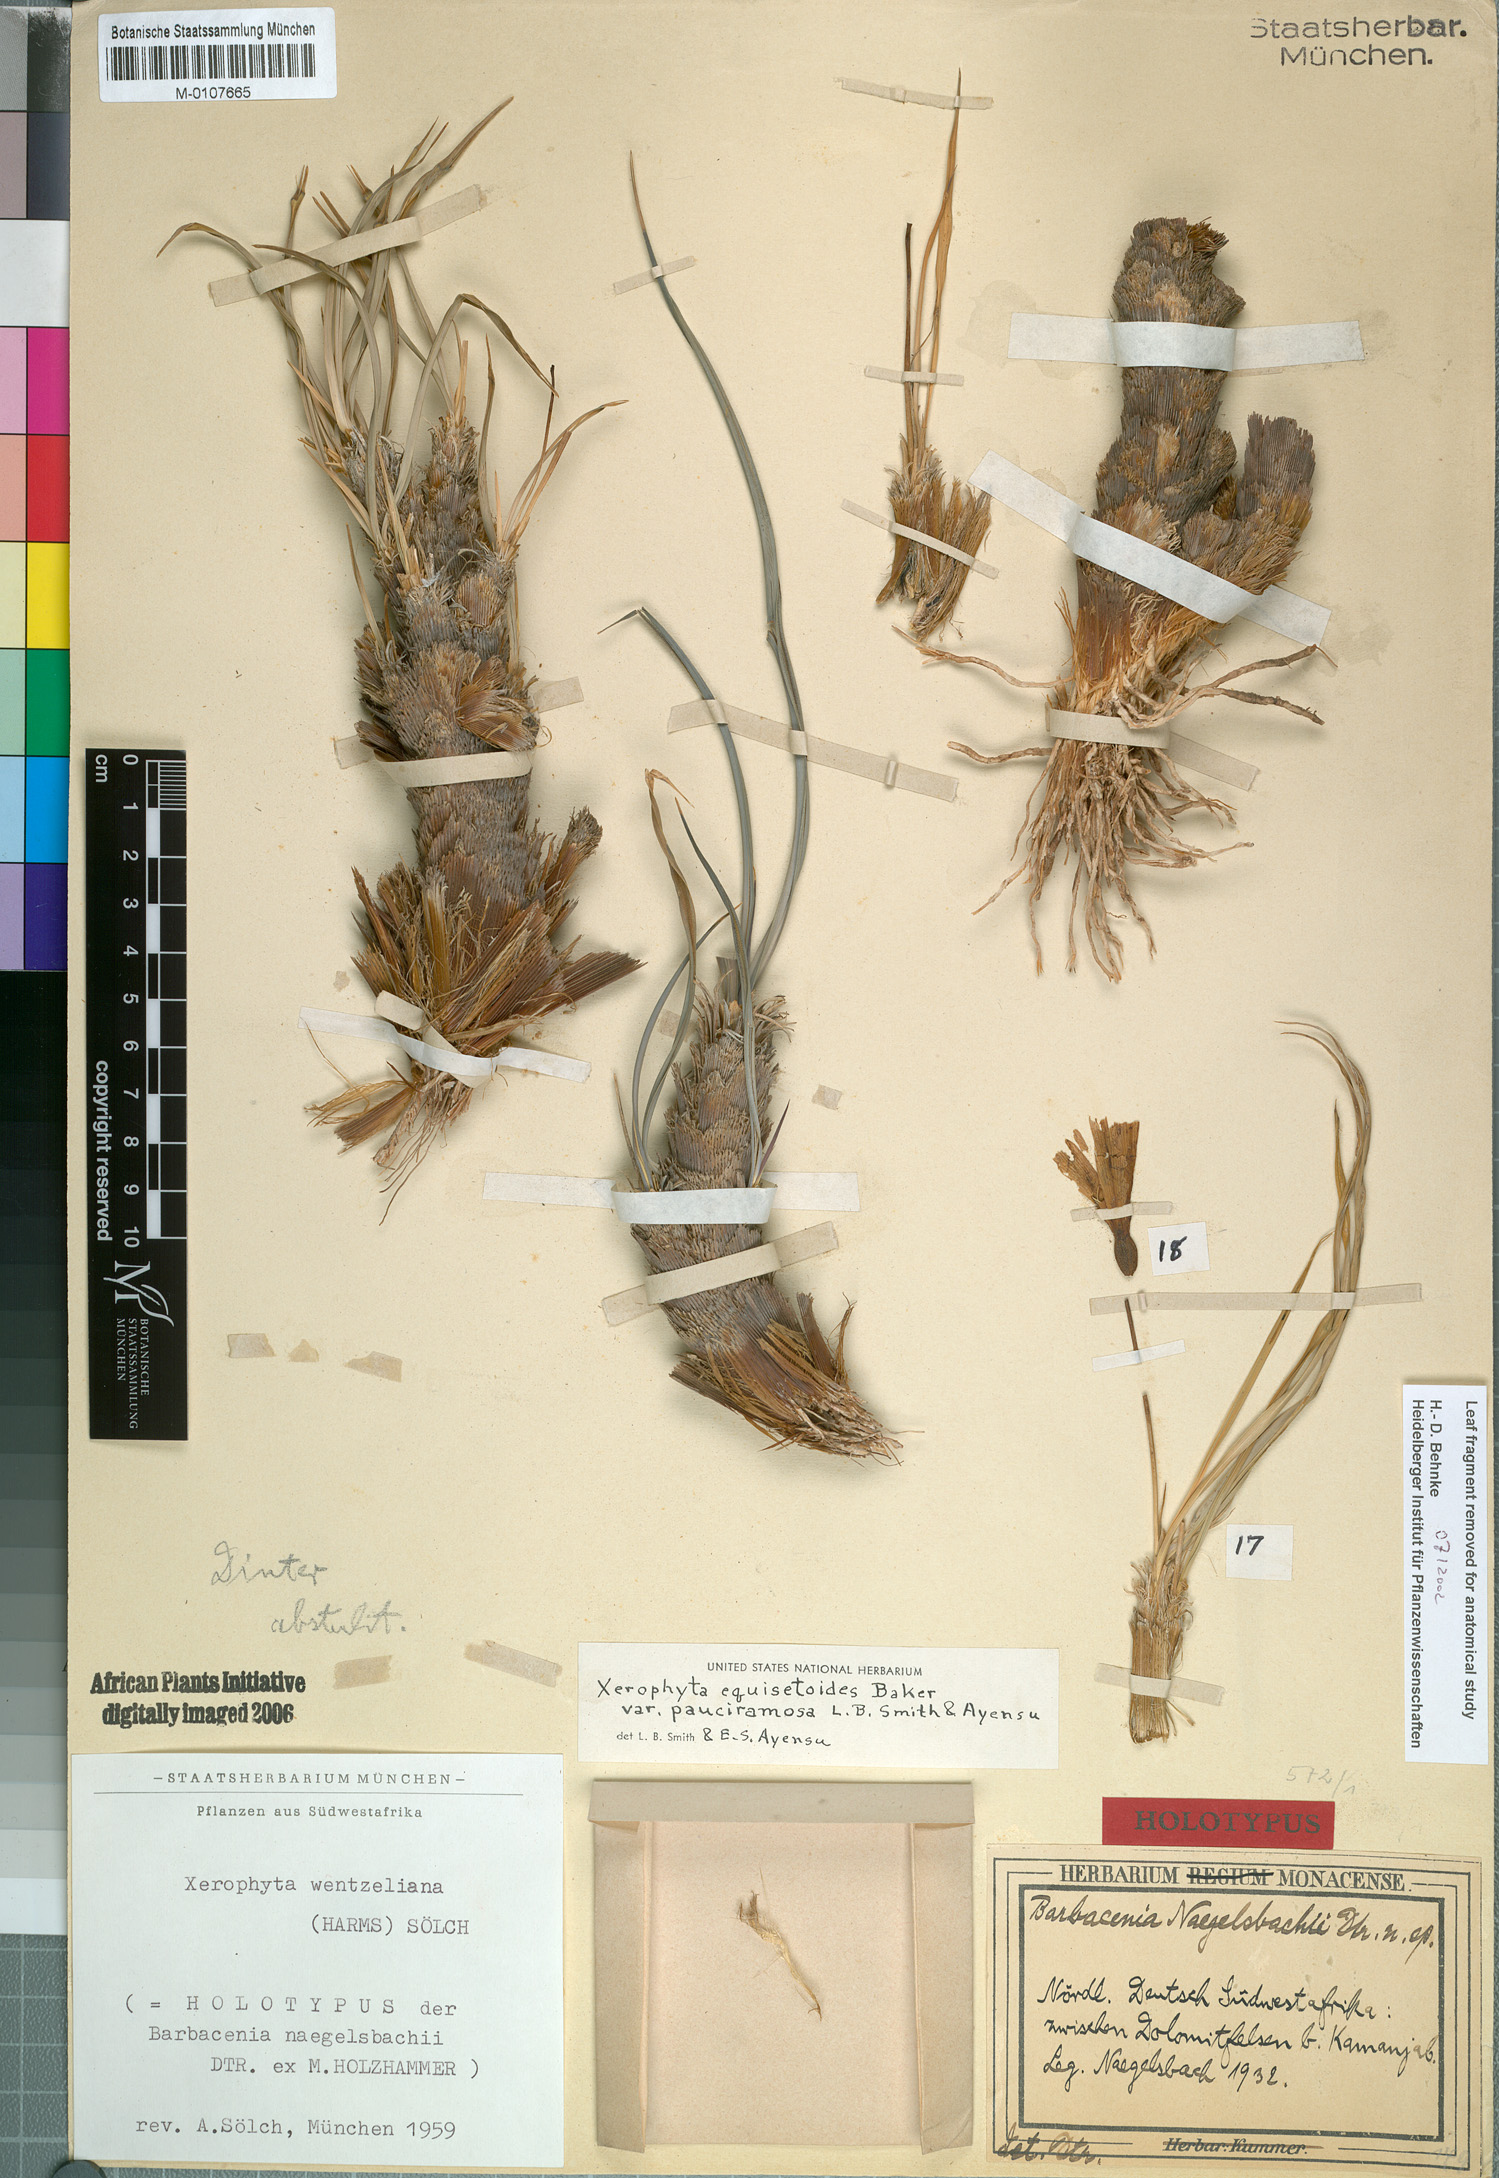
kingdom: Plantae
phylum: Tracheophyta
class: Liliopsida
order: Pandanales
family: Velloziaceae
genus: Xerophyta
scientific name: Xerophyta pauciramosa
